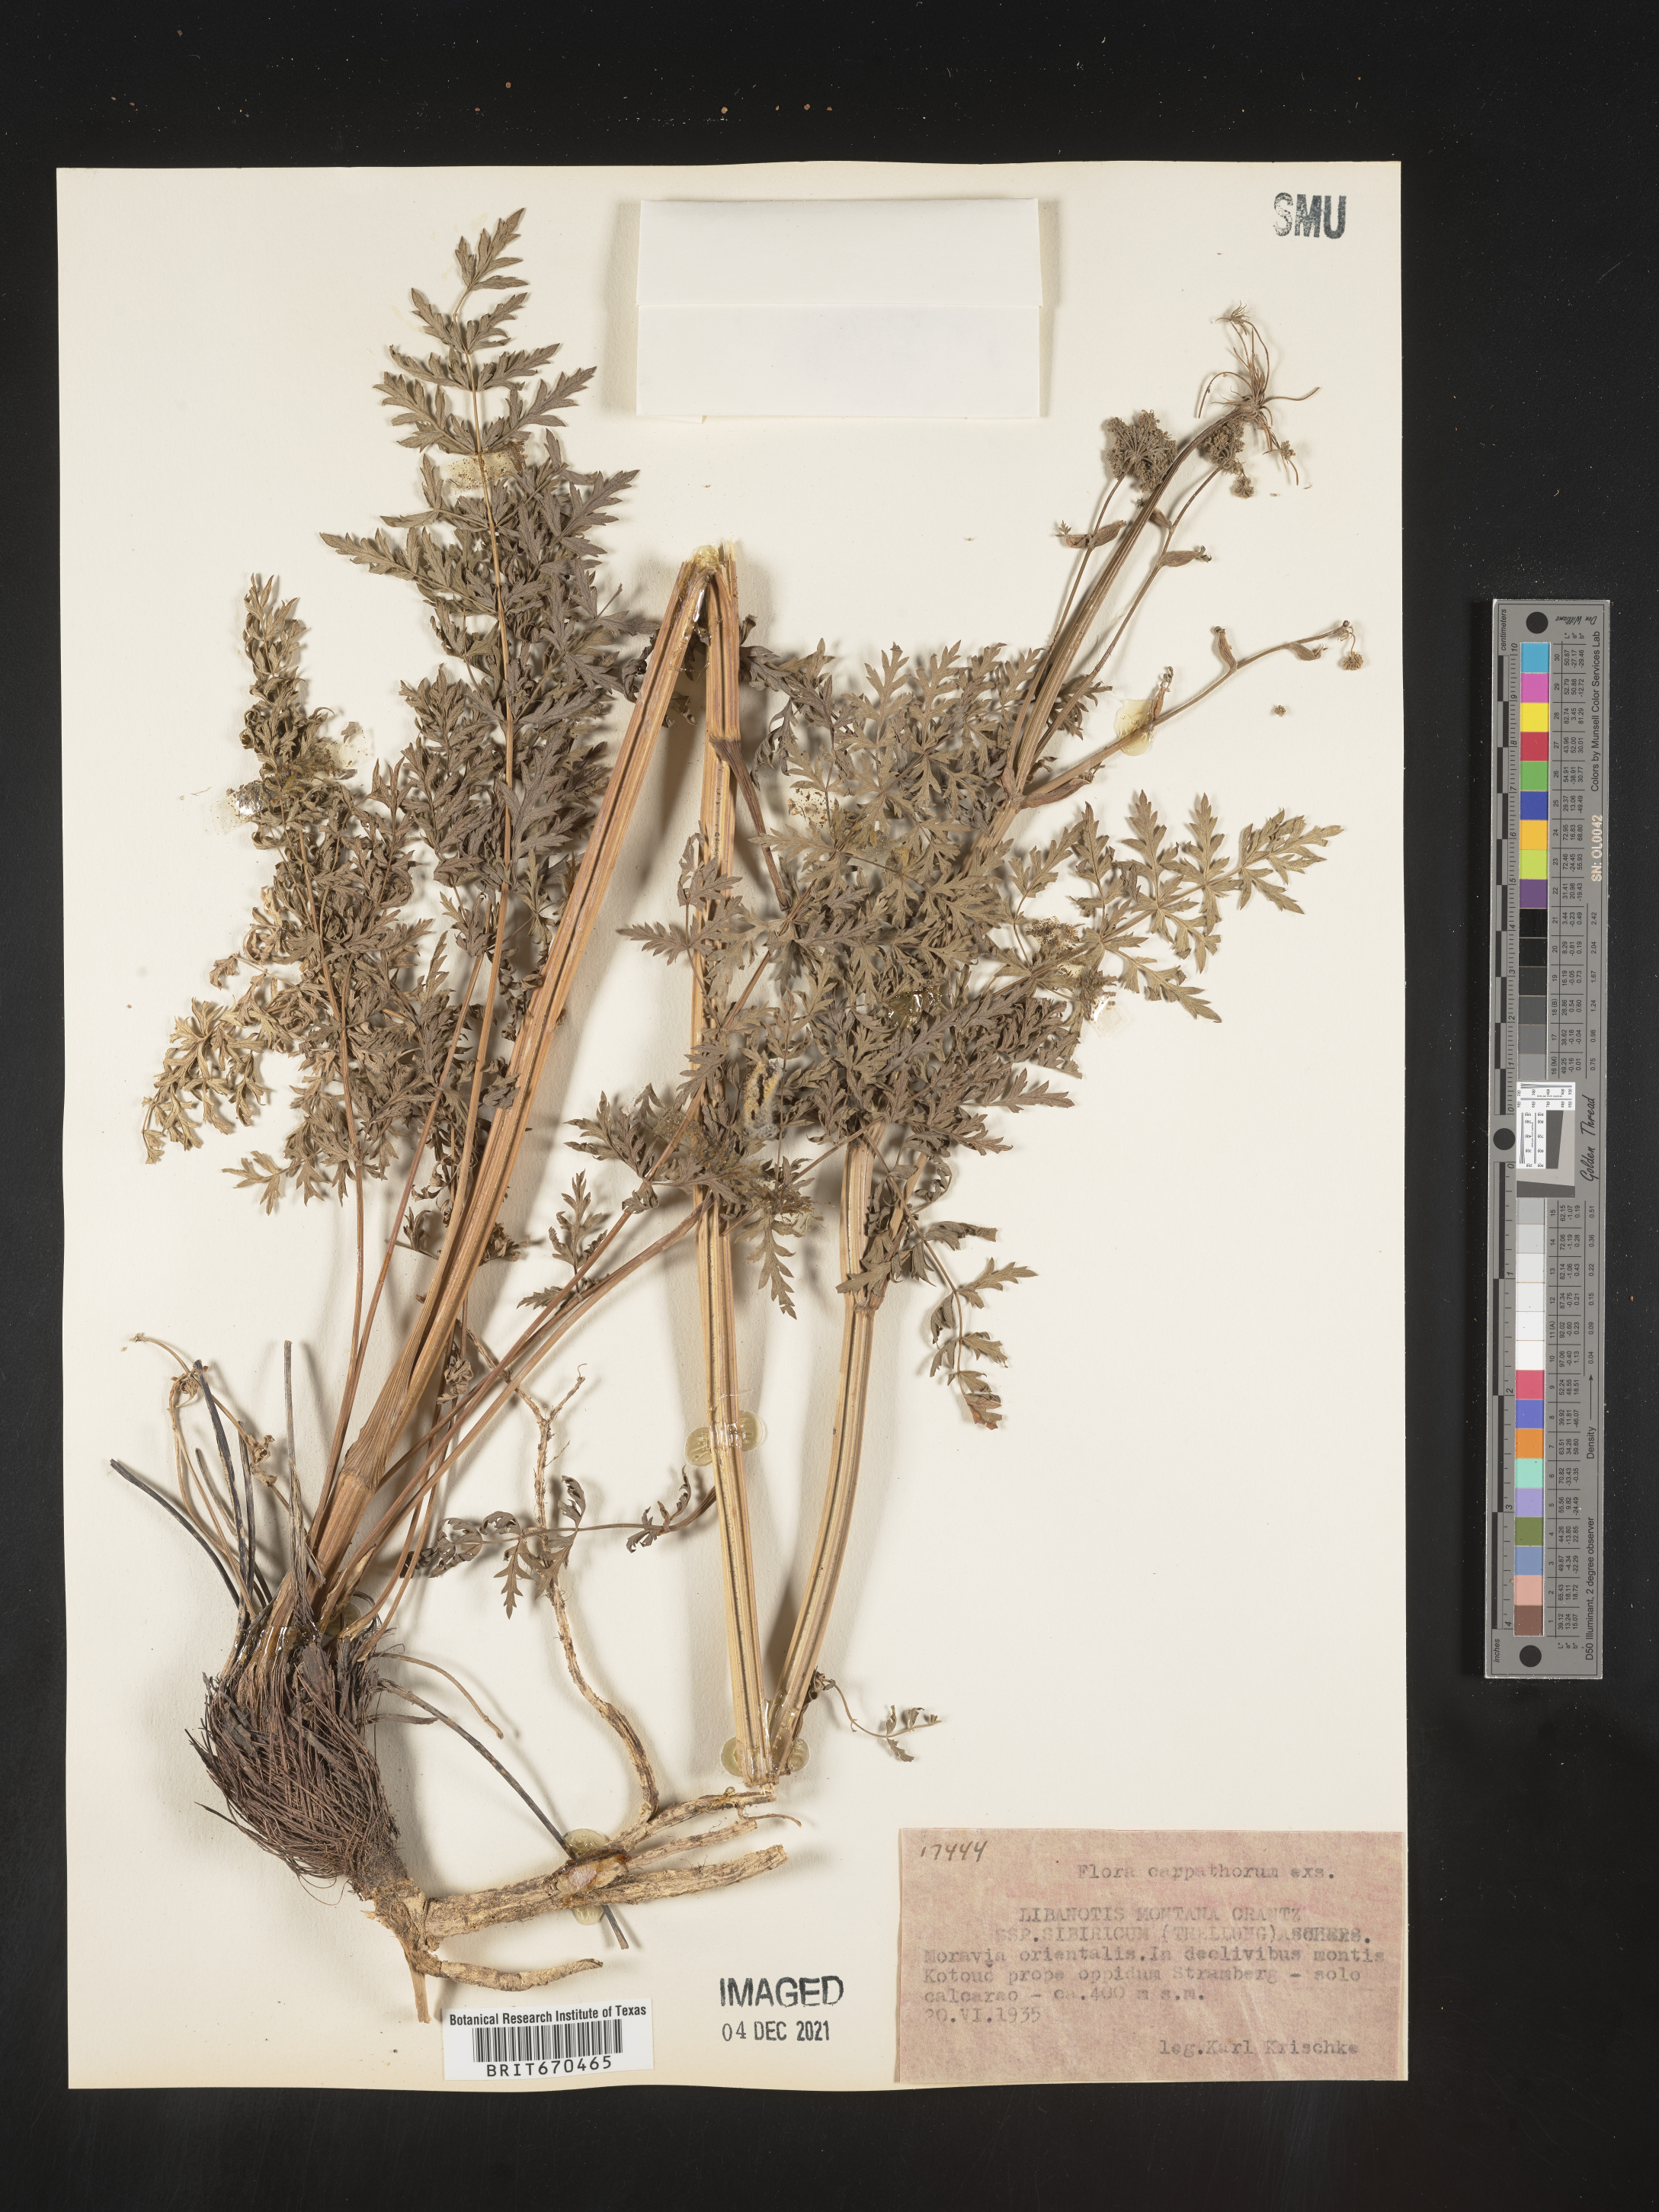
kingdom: Plantae
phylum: Tracheophyta
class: Magnoliopsida
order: Apiales
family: Apiaceae
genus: Libanotis
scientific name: Libanotis
